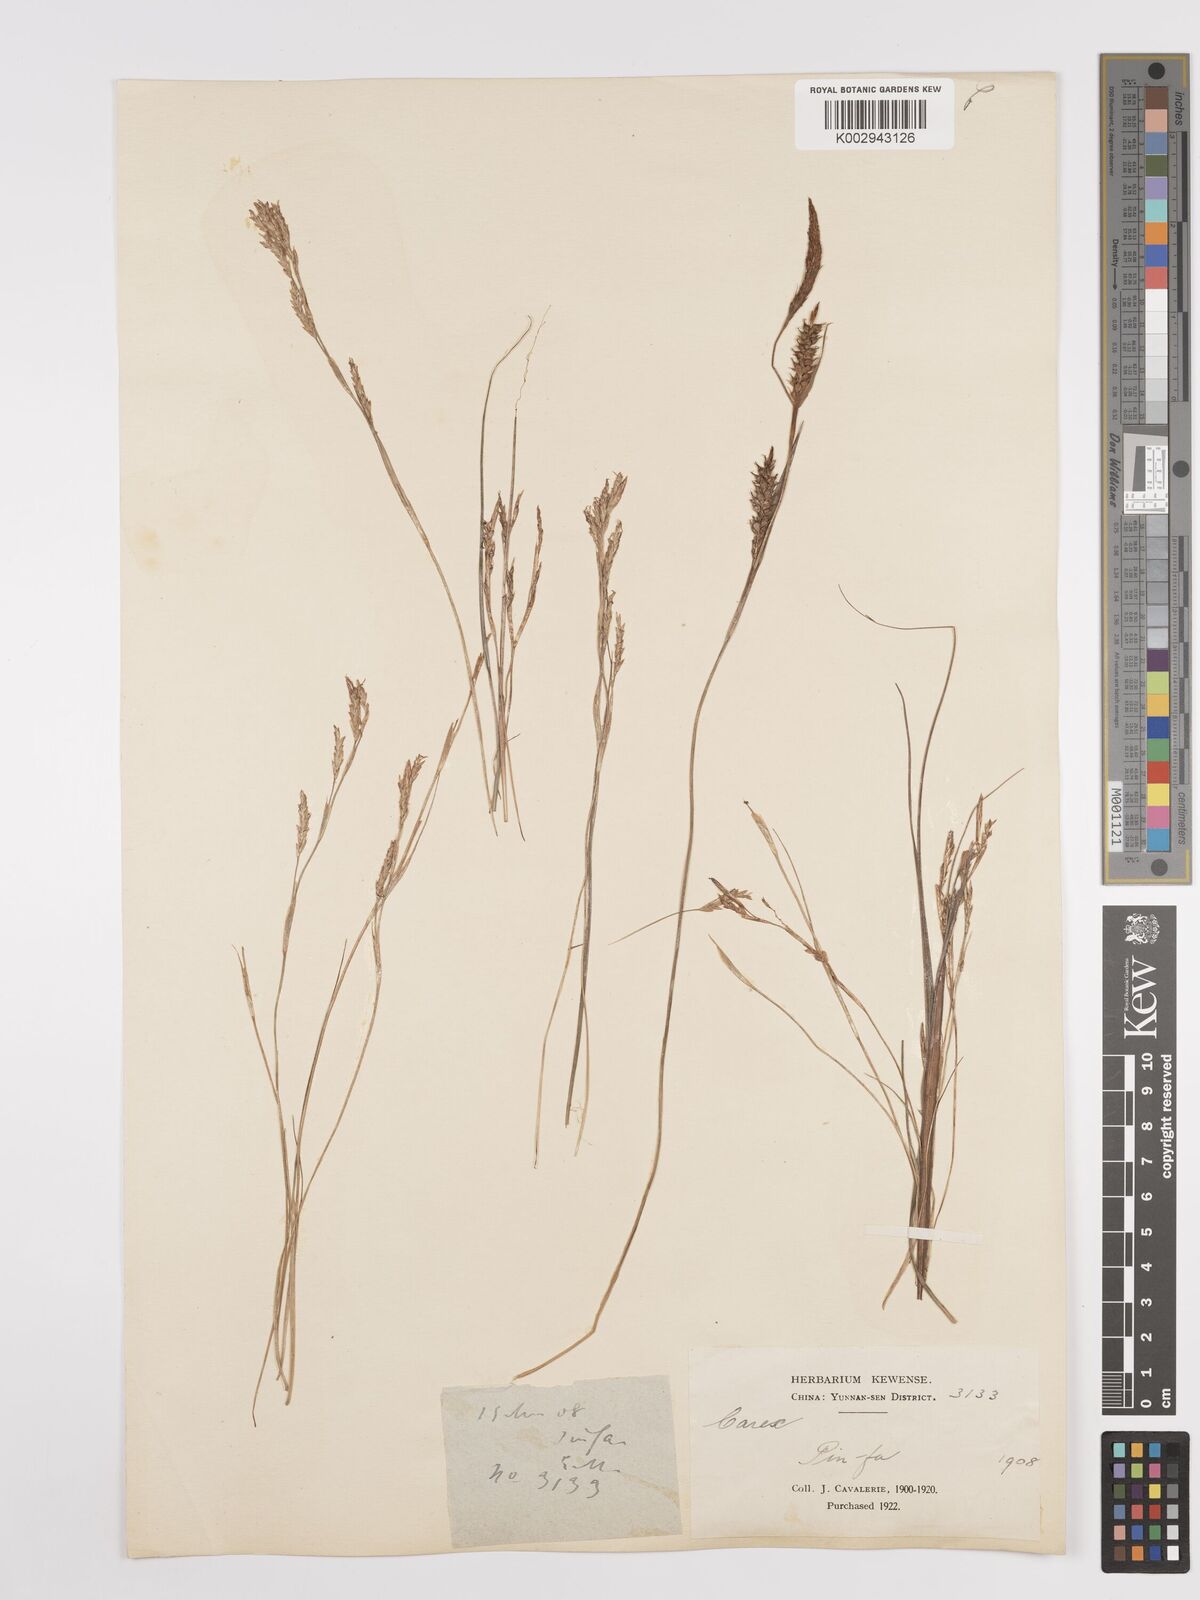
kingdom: Plantae
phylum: Tracheophyta
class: Liliopsida
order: Poales
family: Cyperaceae
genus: Carex
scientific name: Carex
